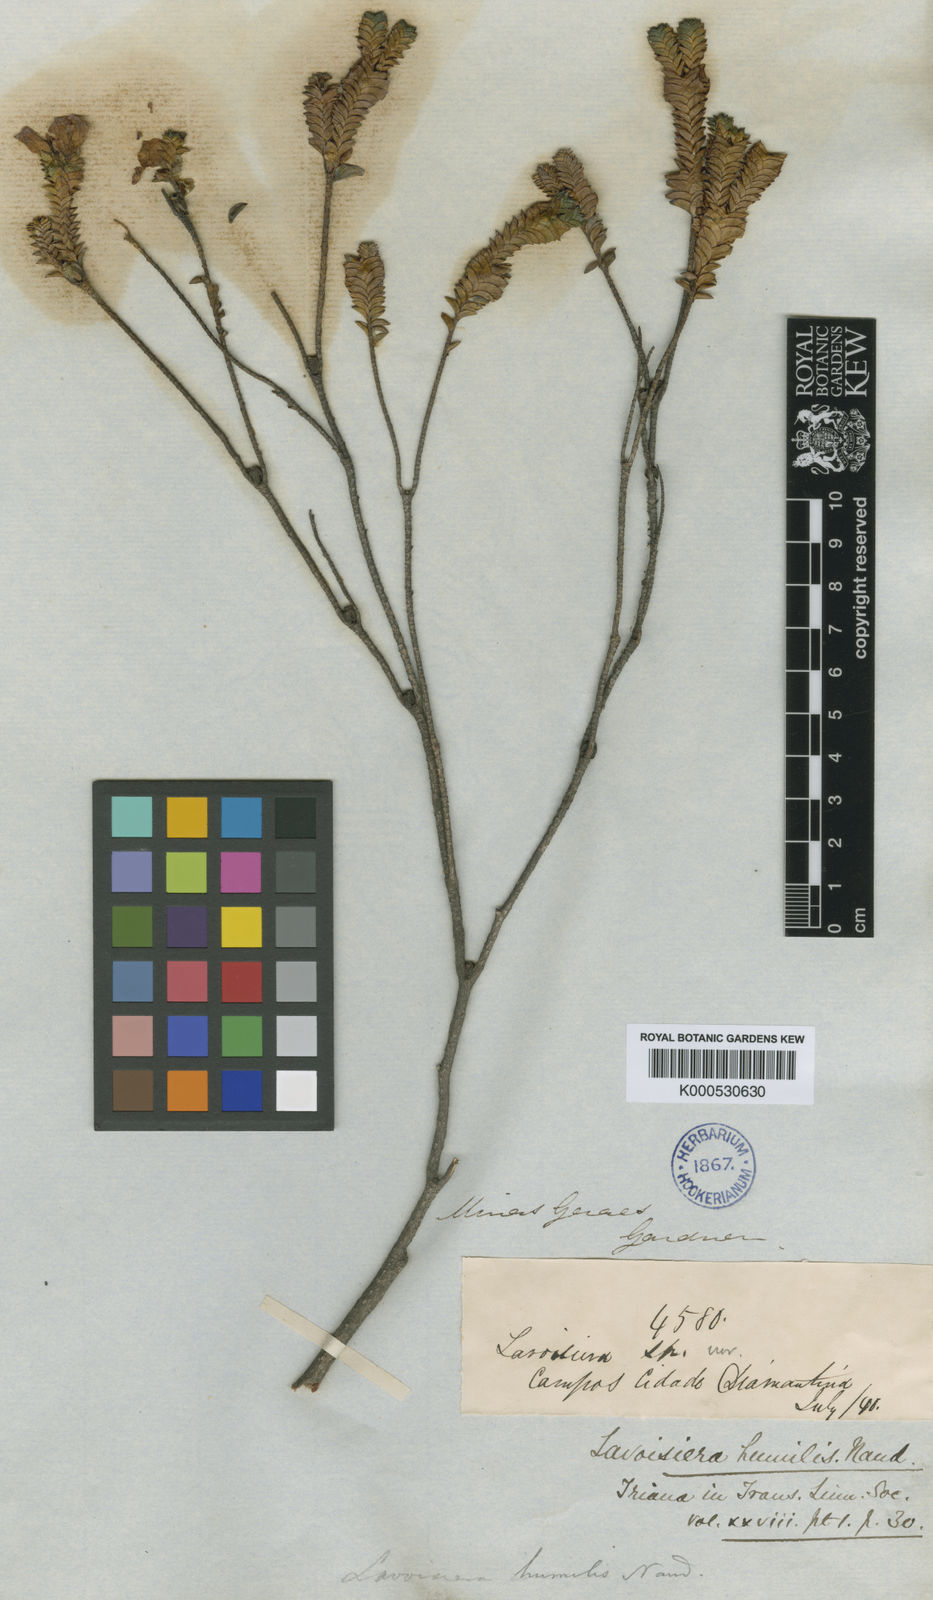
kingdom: Plantae
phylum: Tracheophyta
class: Magnoliopsida
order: Myrtales
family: Melastomataceae
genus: Microlicia
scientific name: Microlicia minor
